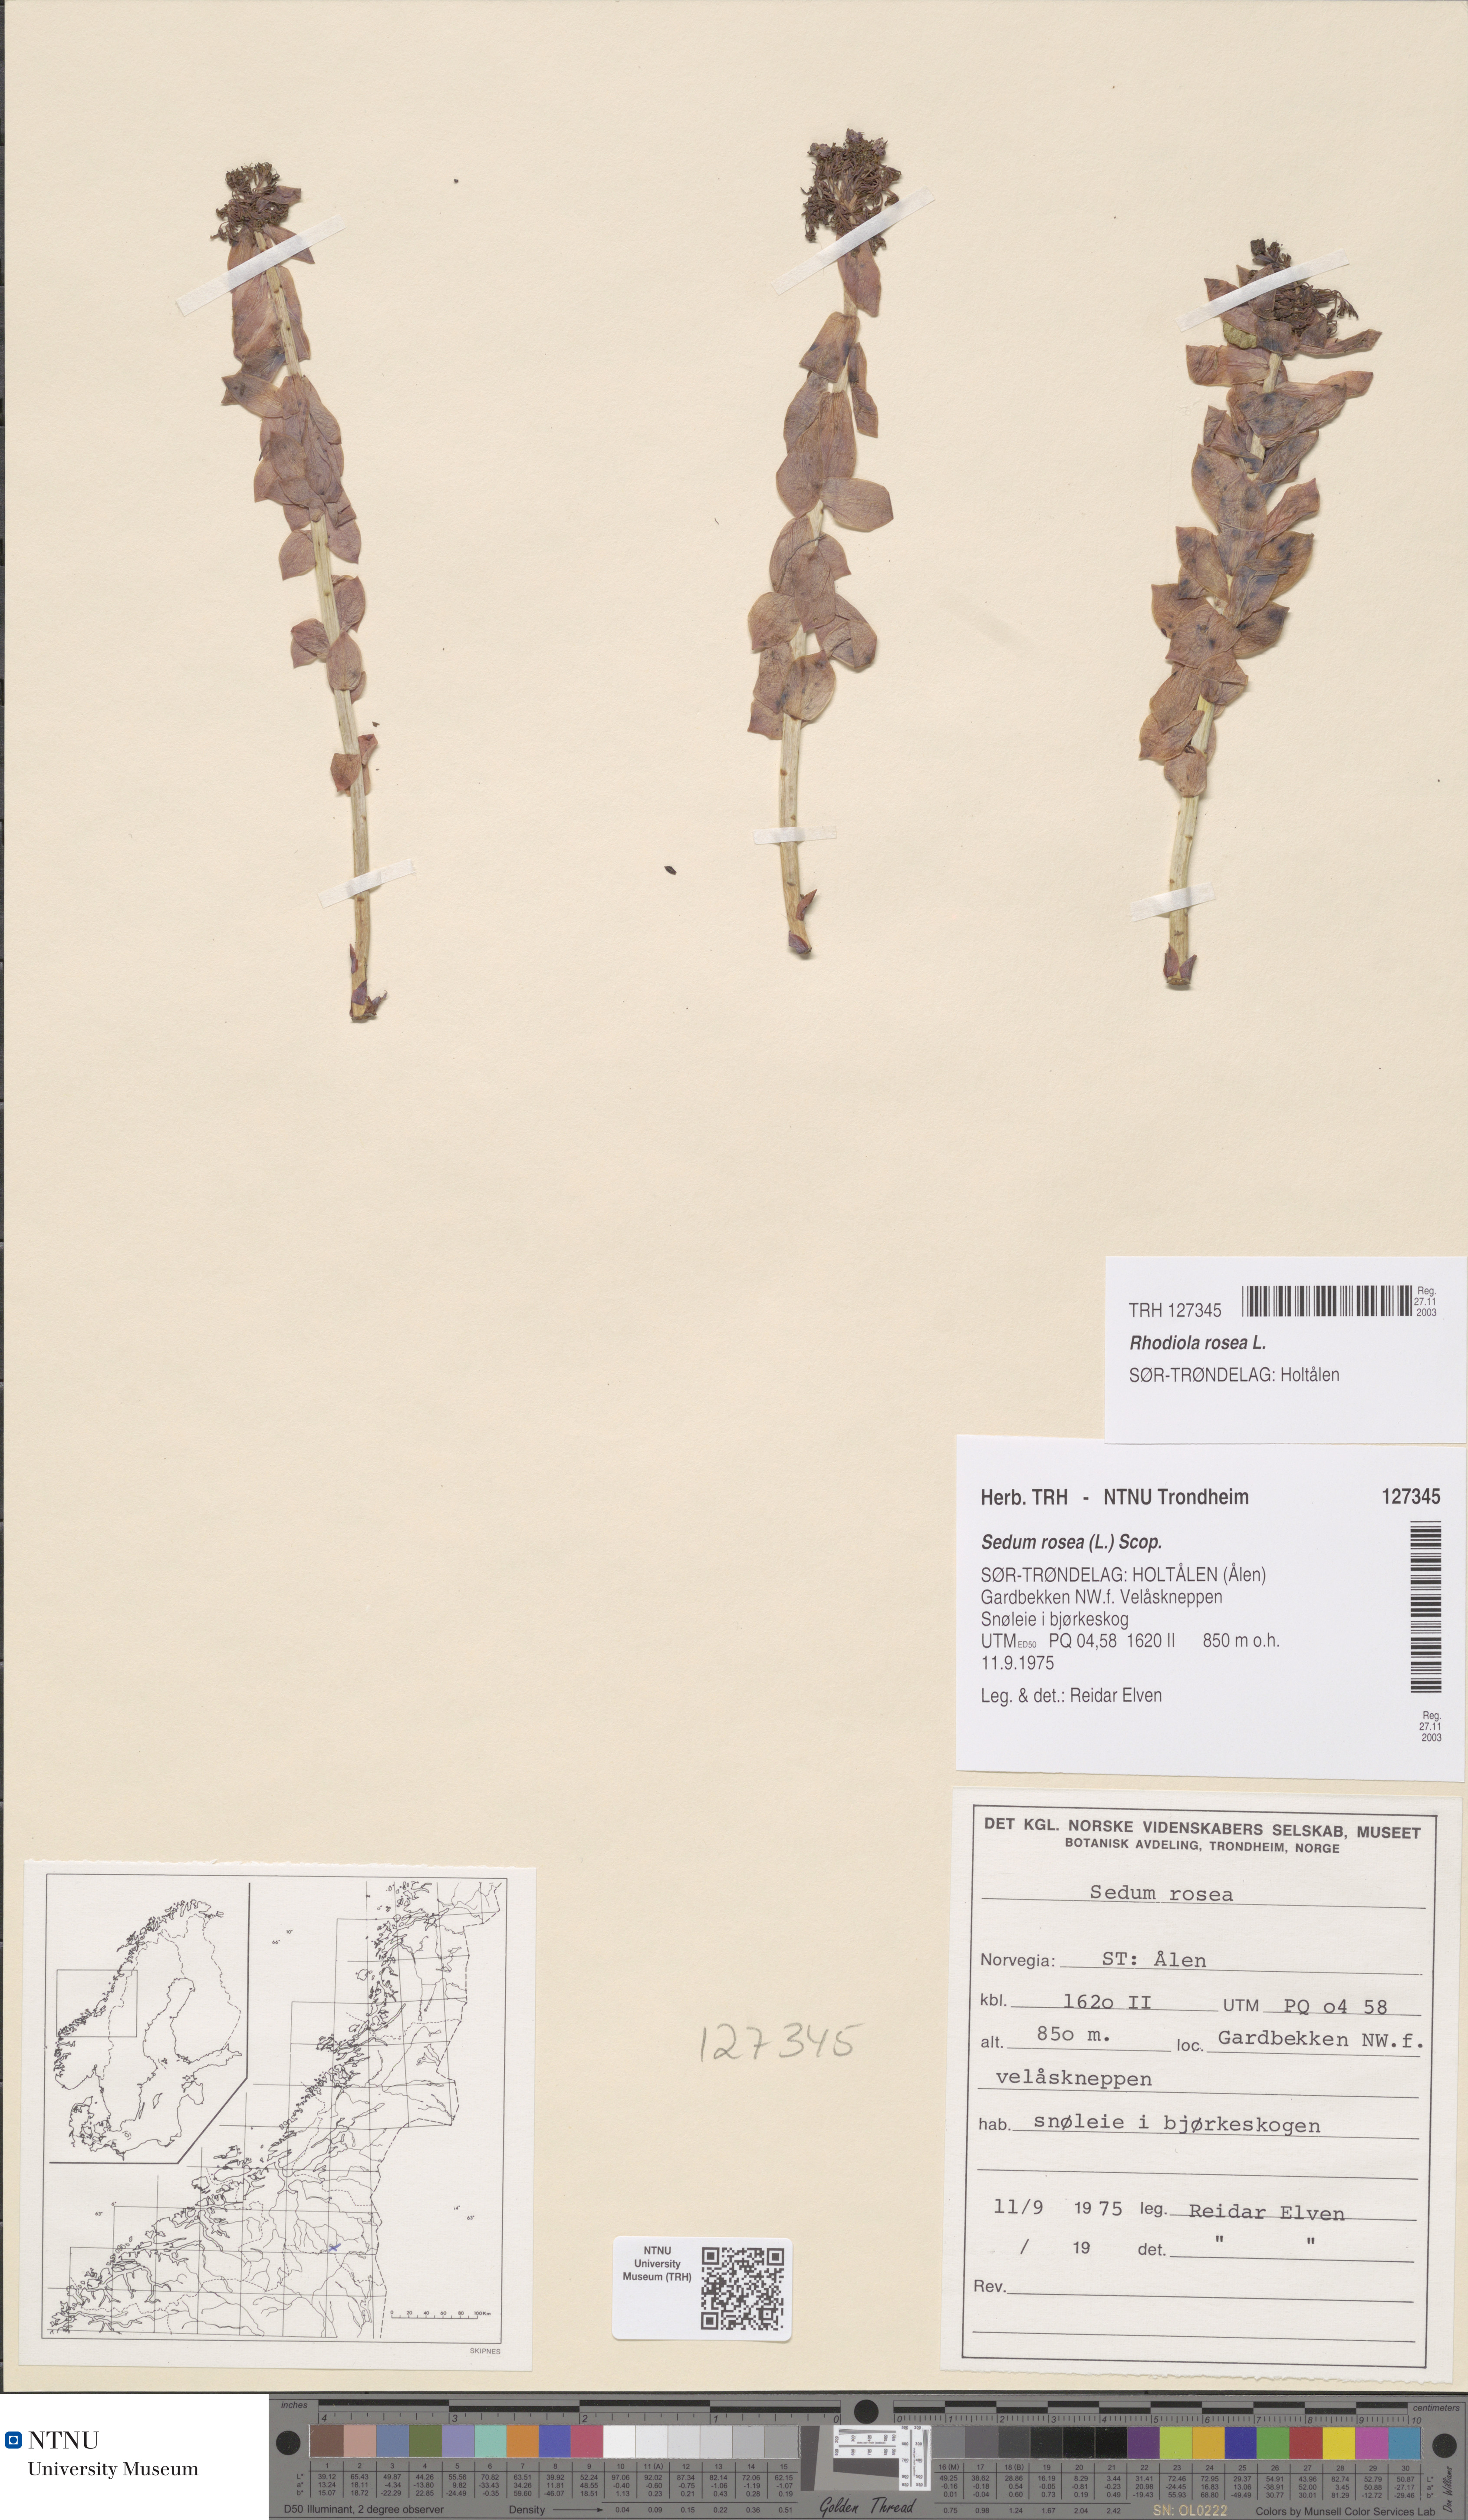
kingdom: Plantae
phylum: Tracheophyta
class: Magnoliopsida
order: Saxifragales
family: Crassulaceae
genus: Rhodiola
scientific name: Rhodiola rosea
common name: Roseroot
